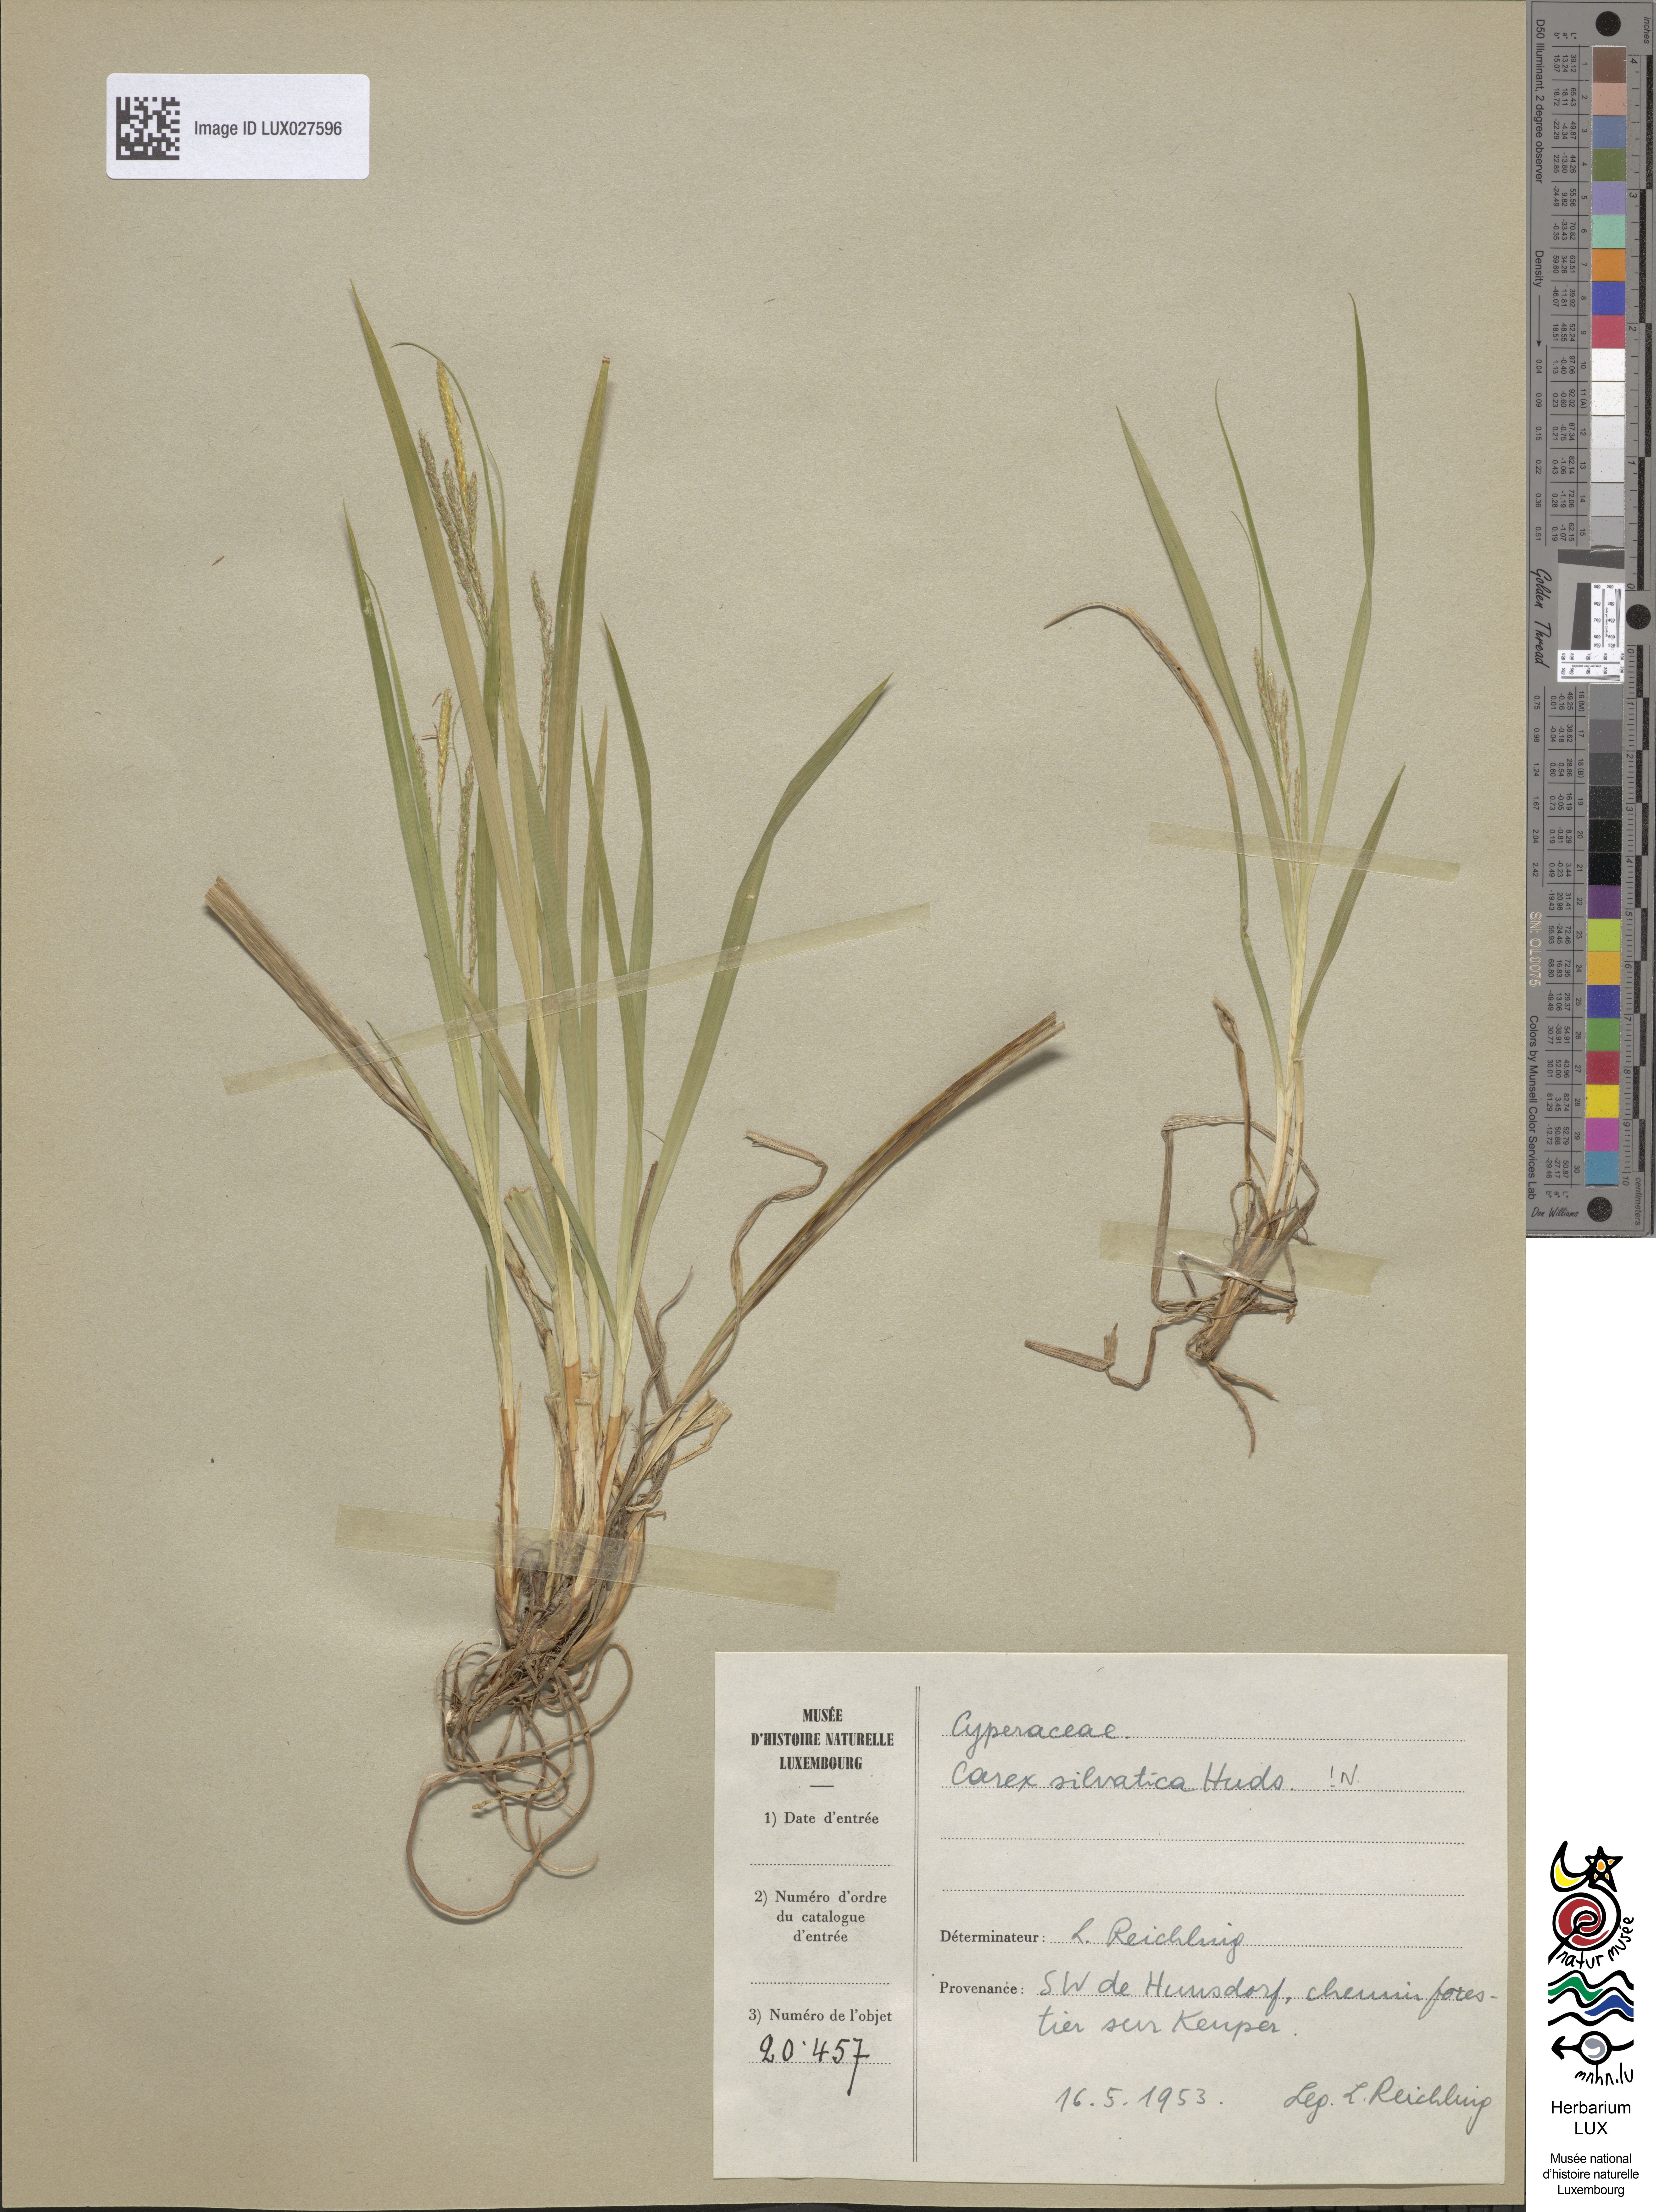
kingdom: Plantae
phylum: Tracheophyta
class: Liliopsida
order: Poales
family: Cyperaceae
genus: Carex
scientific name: Carex sylvatica
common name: Wood-sedge
